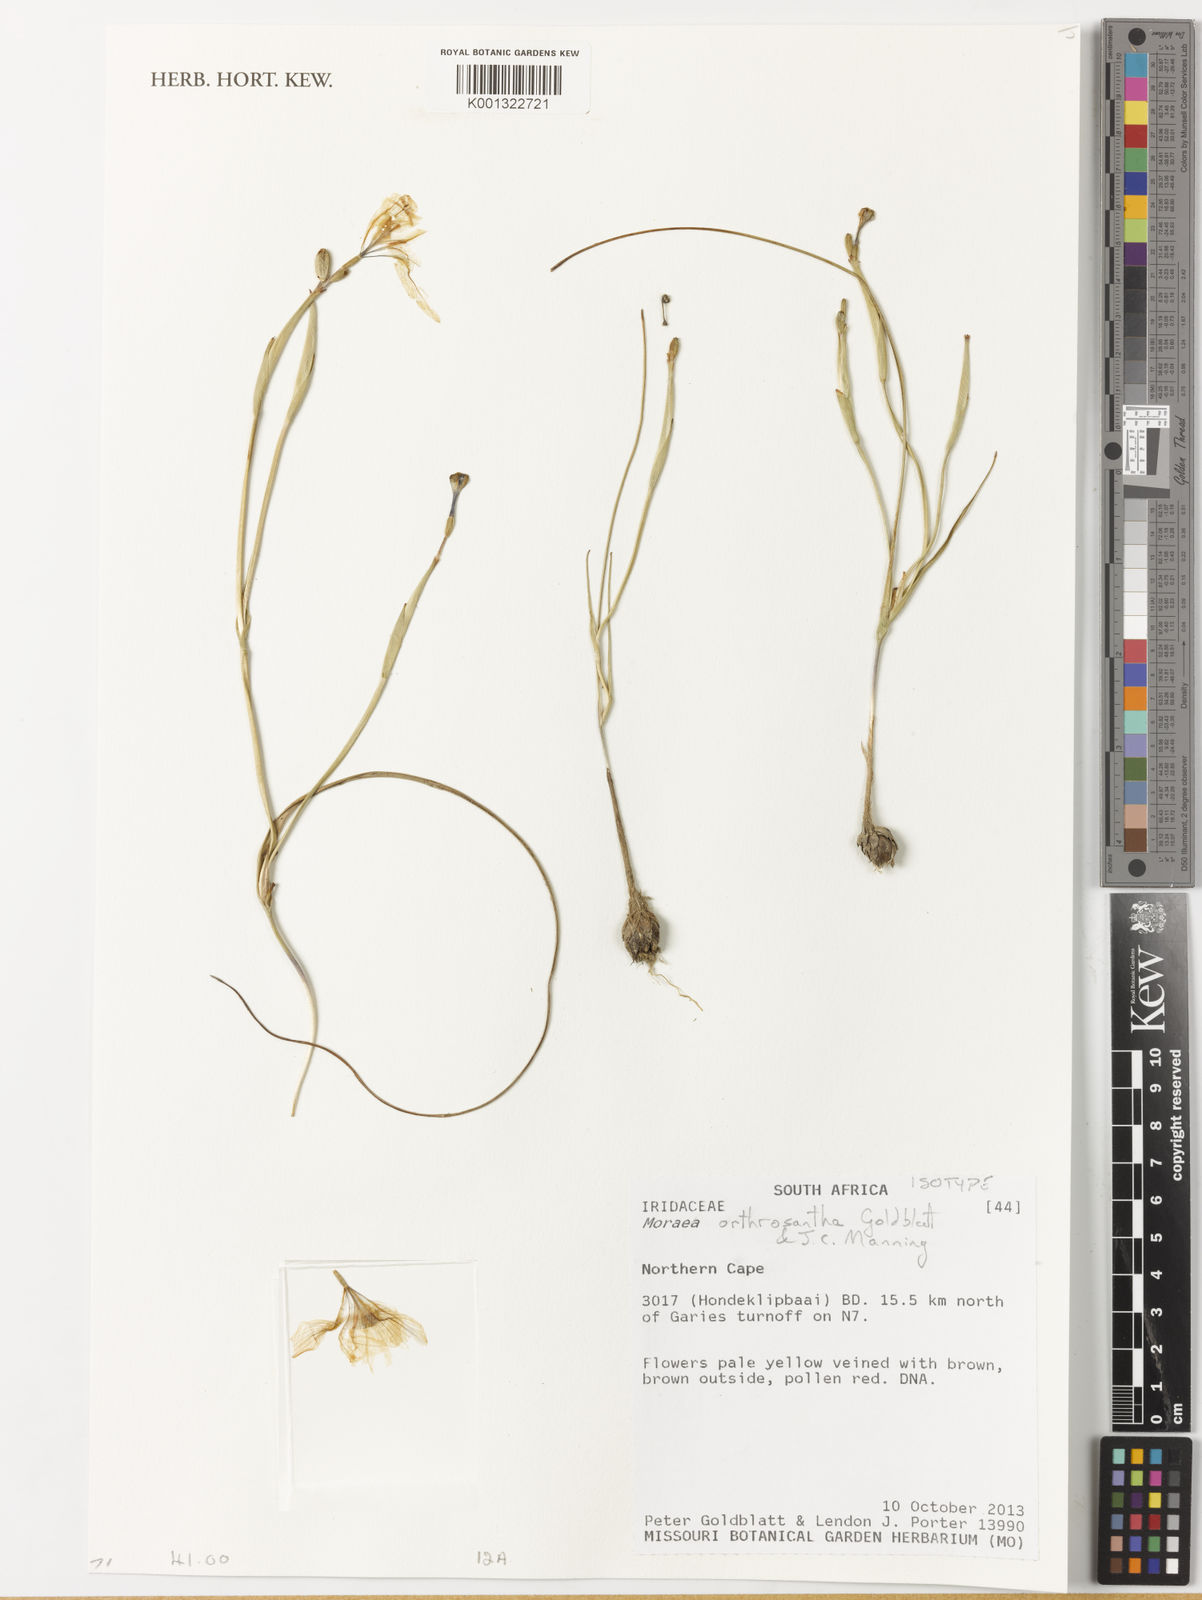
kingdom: Plantae
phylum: Tracheophyta
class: Liliopsida
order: Asparagales
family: Iridaceae
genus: Moraea
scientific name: Moraea orthrosantha
